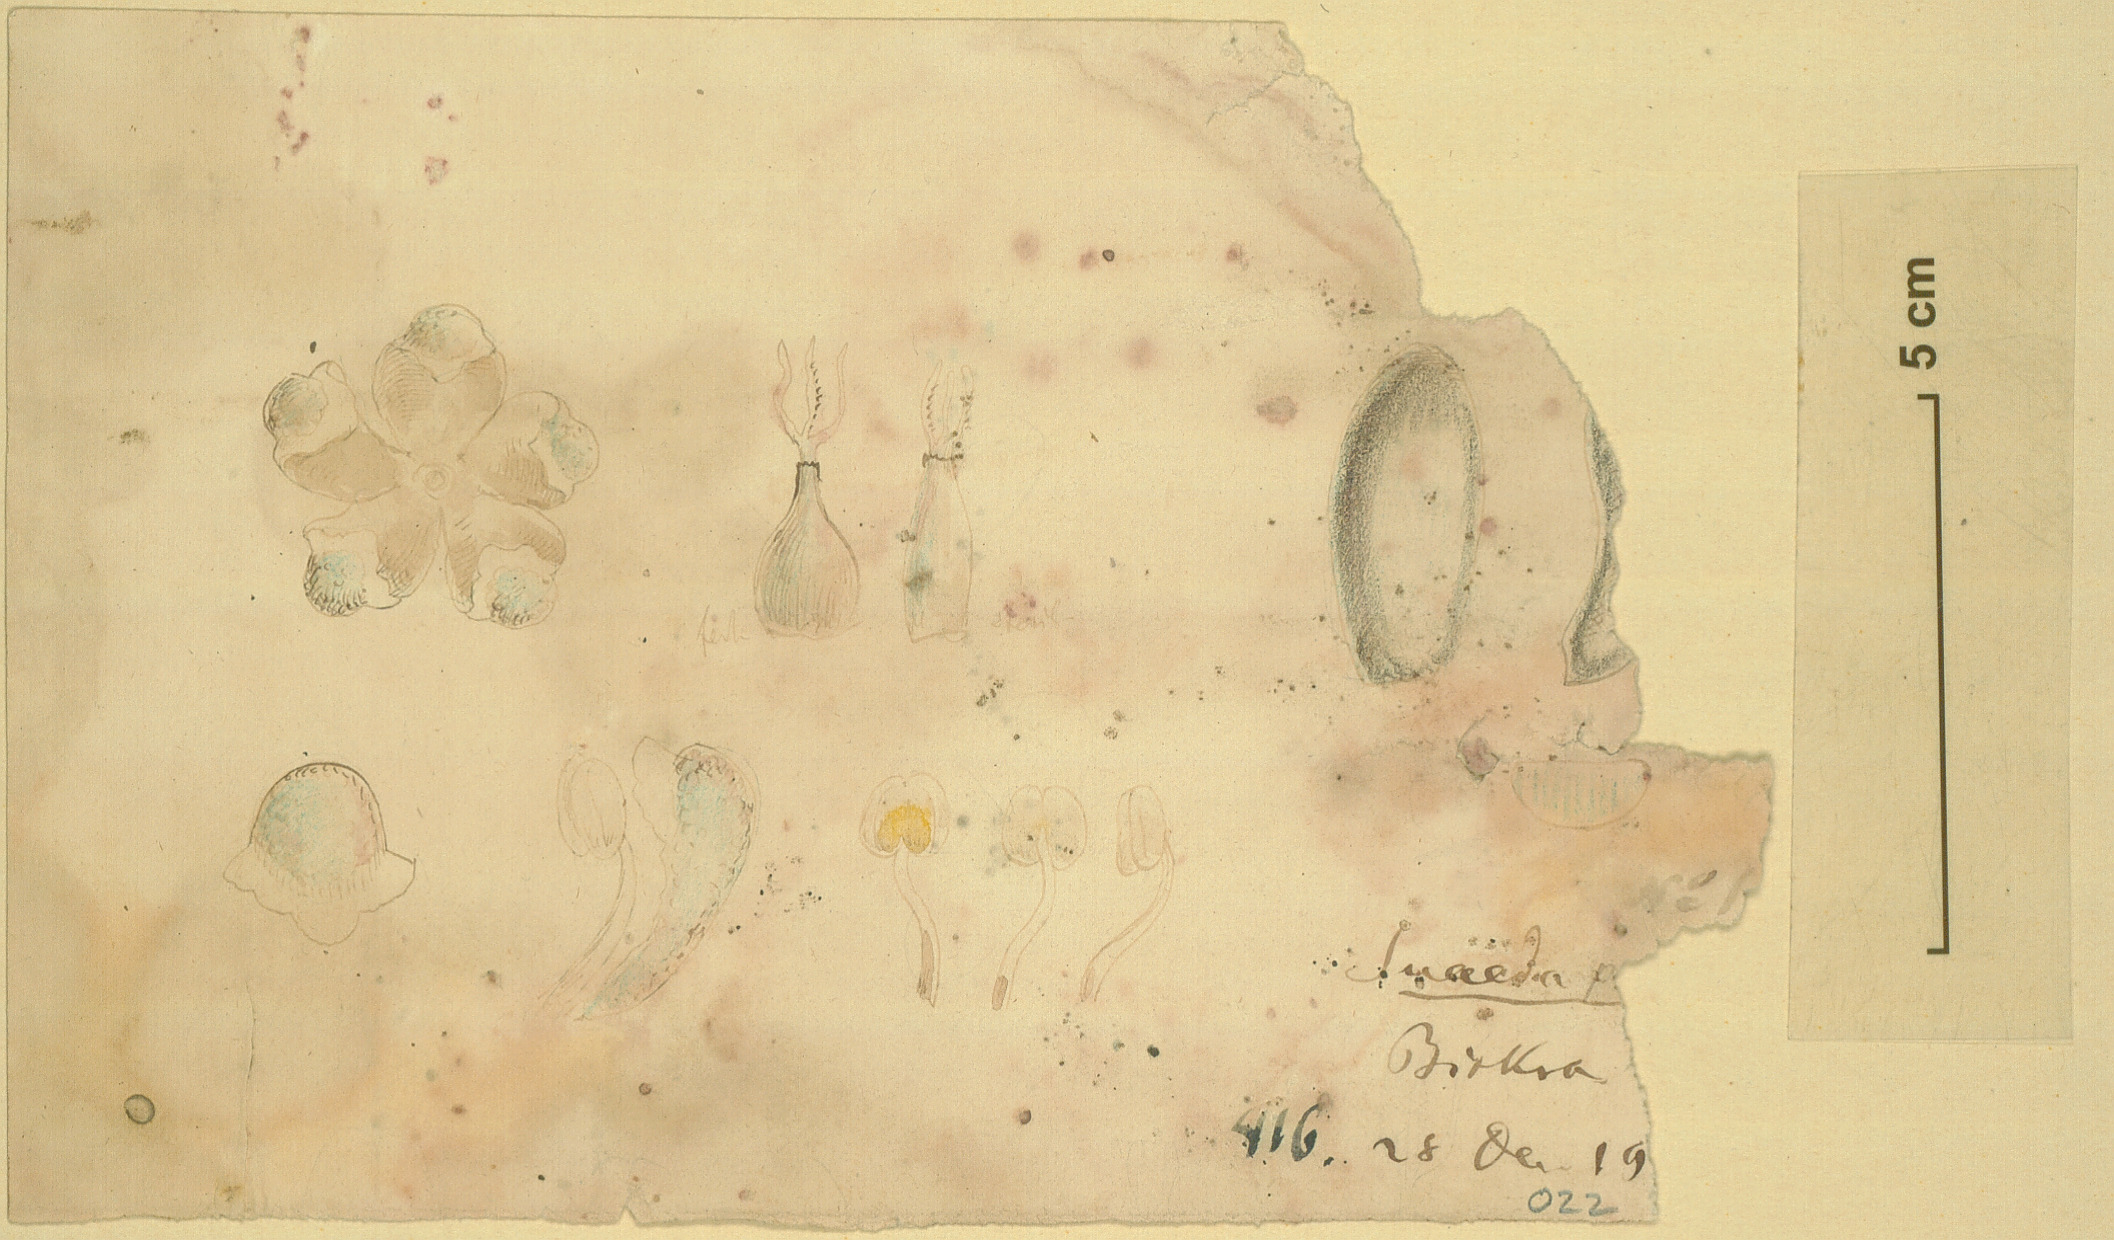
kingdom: Plantae
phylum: Tracheophyta
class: Magnoliopsida
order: Caryophyllales
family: Amaranthaceae
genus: Suaeda
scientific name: Suaeda vermiculata
